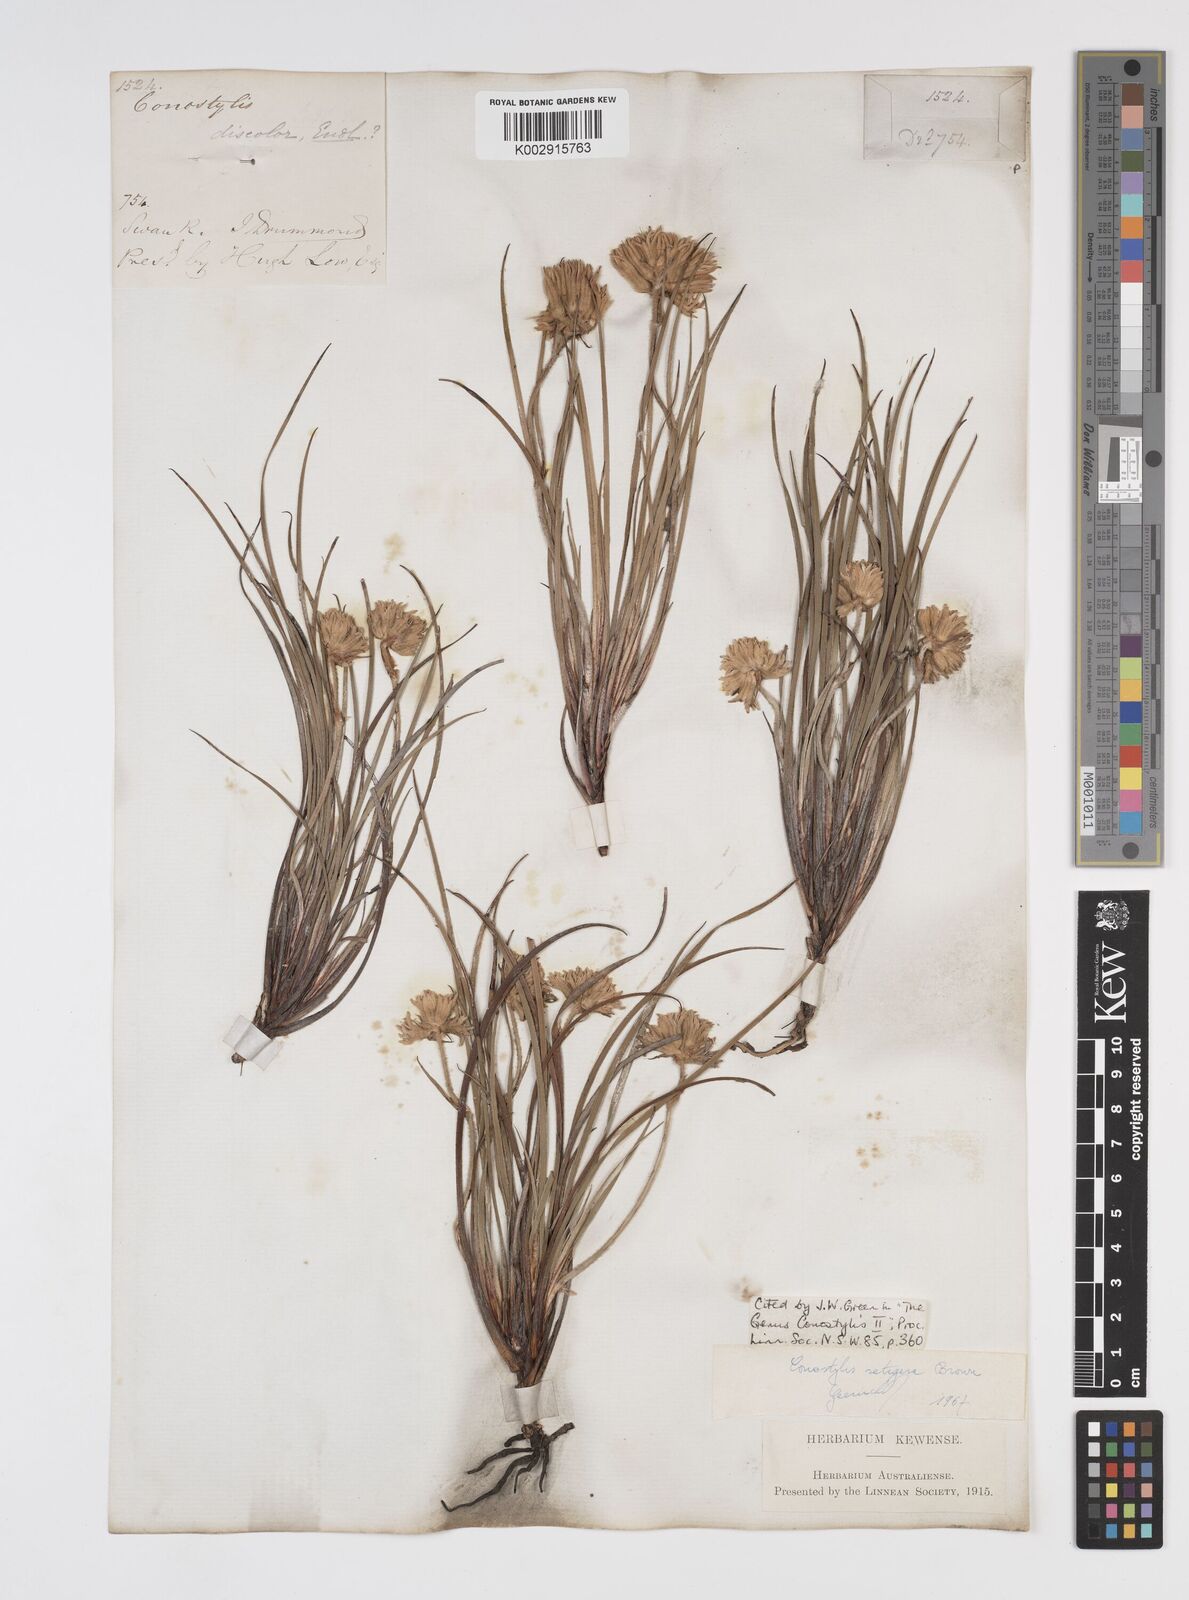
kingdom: Plantae
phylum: Tracheophyta
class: Liliopsida
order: Commelinales
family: Haemodoraceae
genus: Conostylis
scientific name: Conostylis setigera
